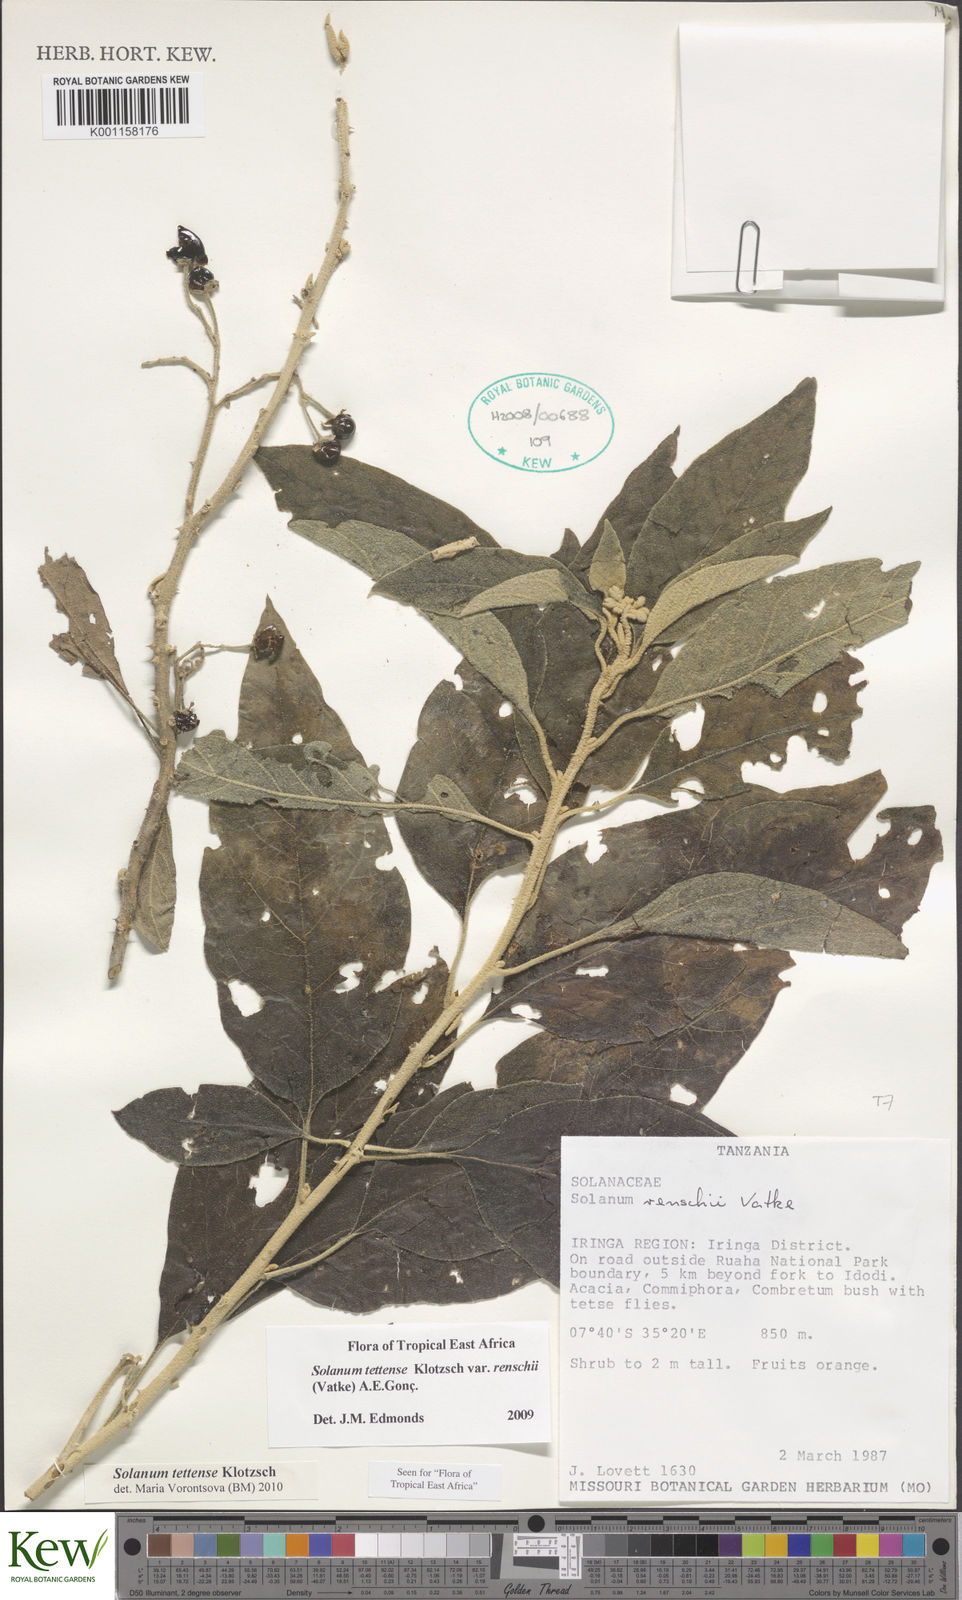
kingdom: Plantae
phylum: Tracheophyta
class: Magnoliopsida
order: Solanales
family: Solanaceae
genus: Solanum
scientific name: Solanum tettense
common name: Mozambique bitter apple
